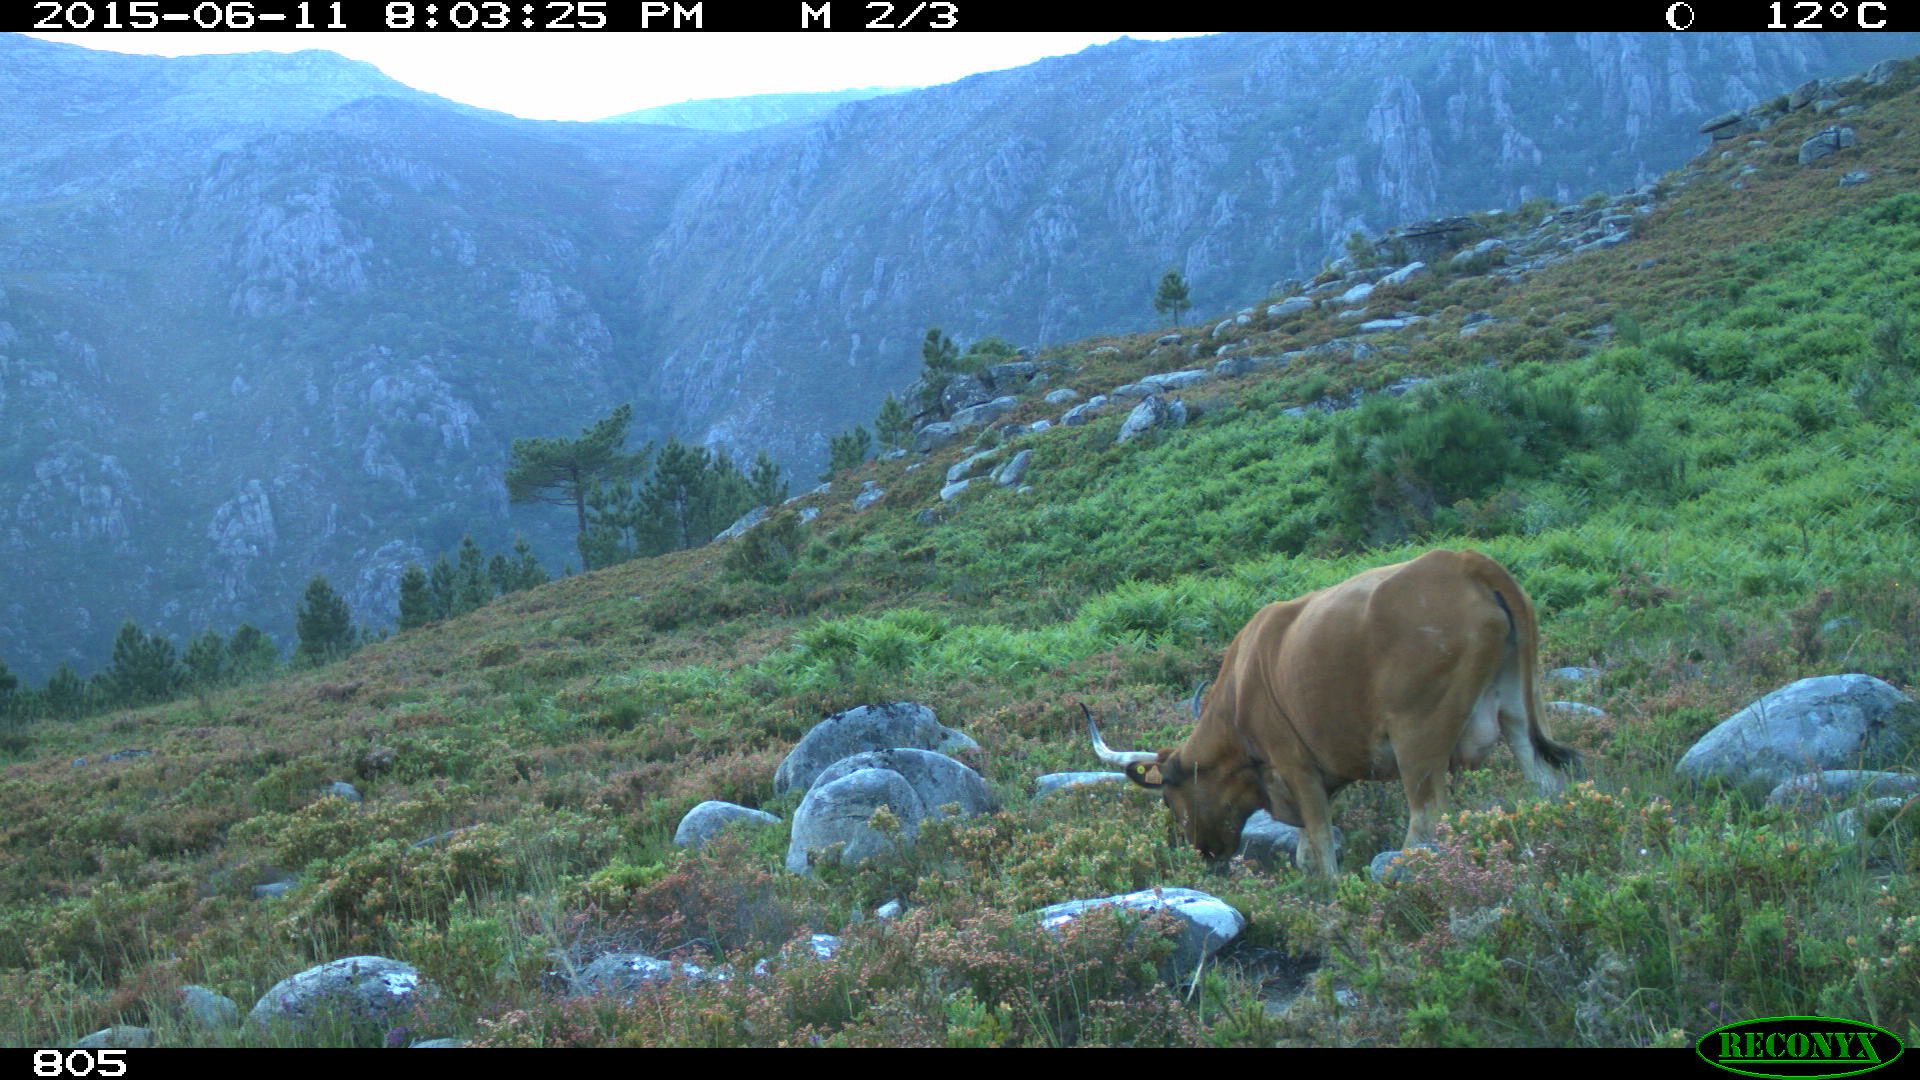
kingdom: Animalia
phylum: Chordata
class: Mammalia
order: Artiodactyla
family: Bovidae
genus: Bos
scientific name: Bos taurus
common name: Domesticated cattle
